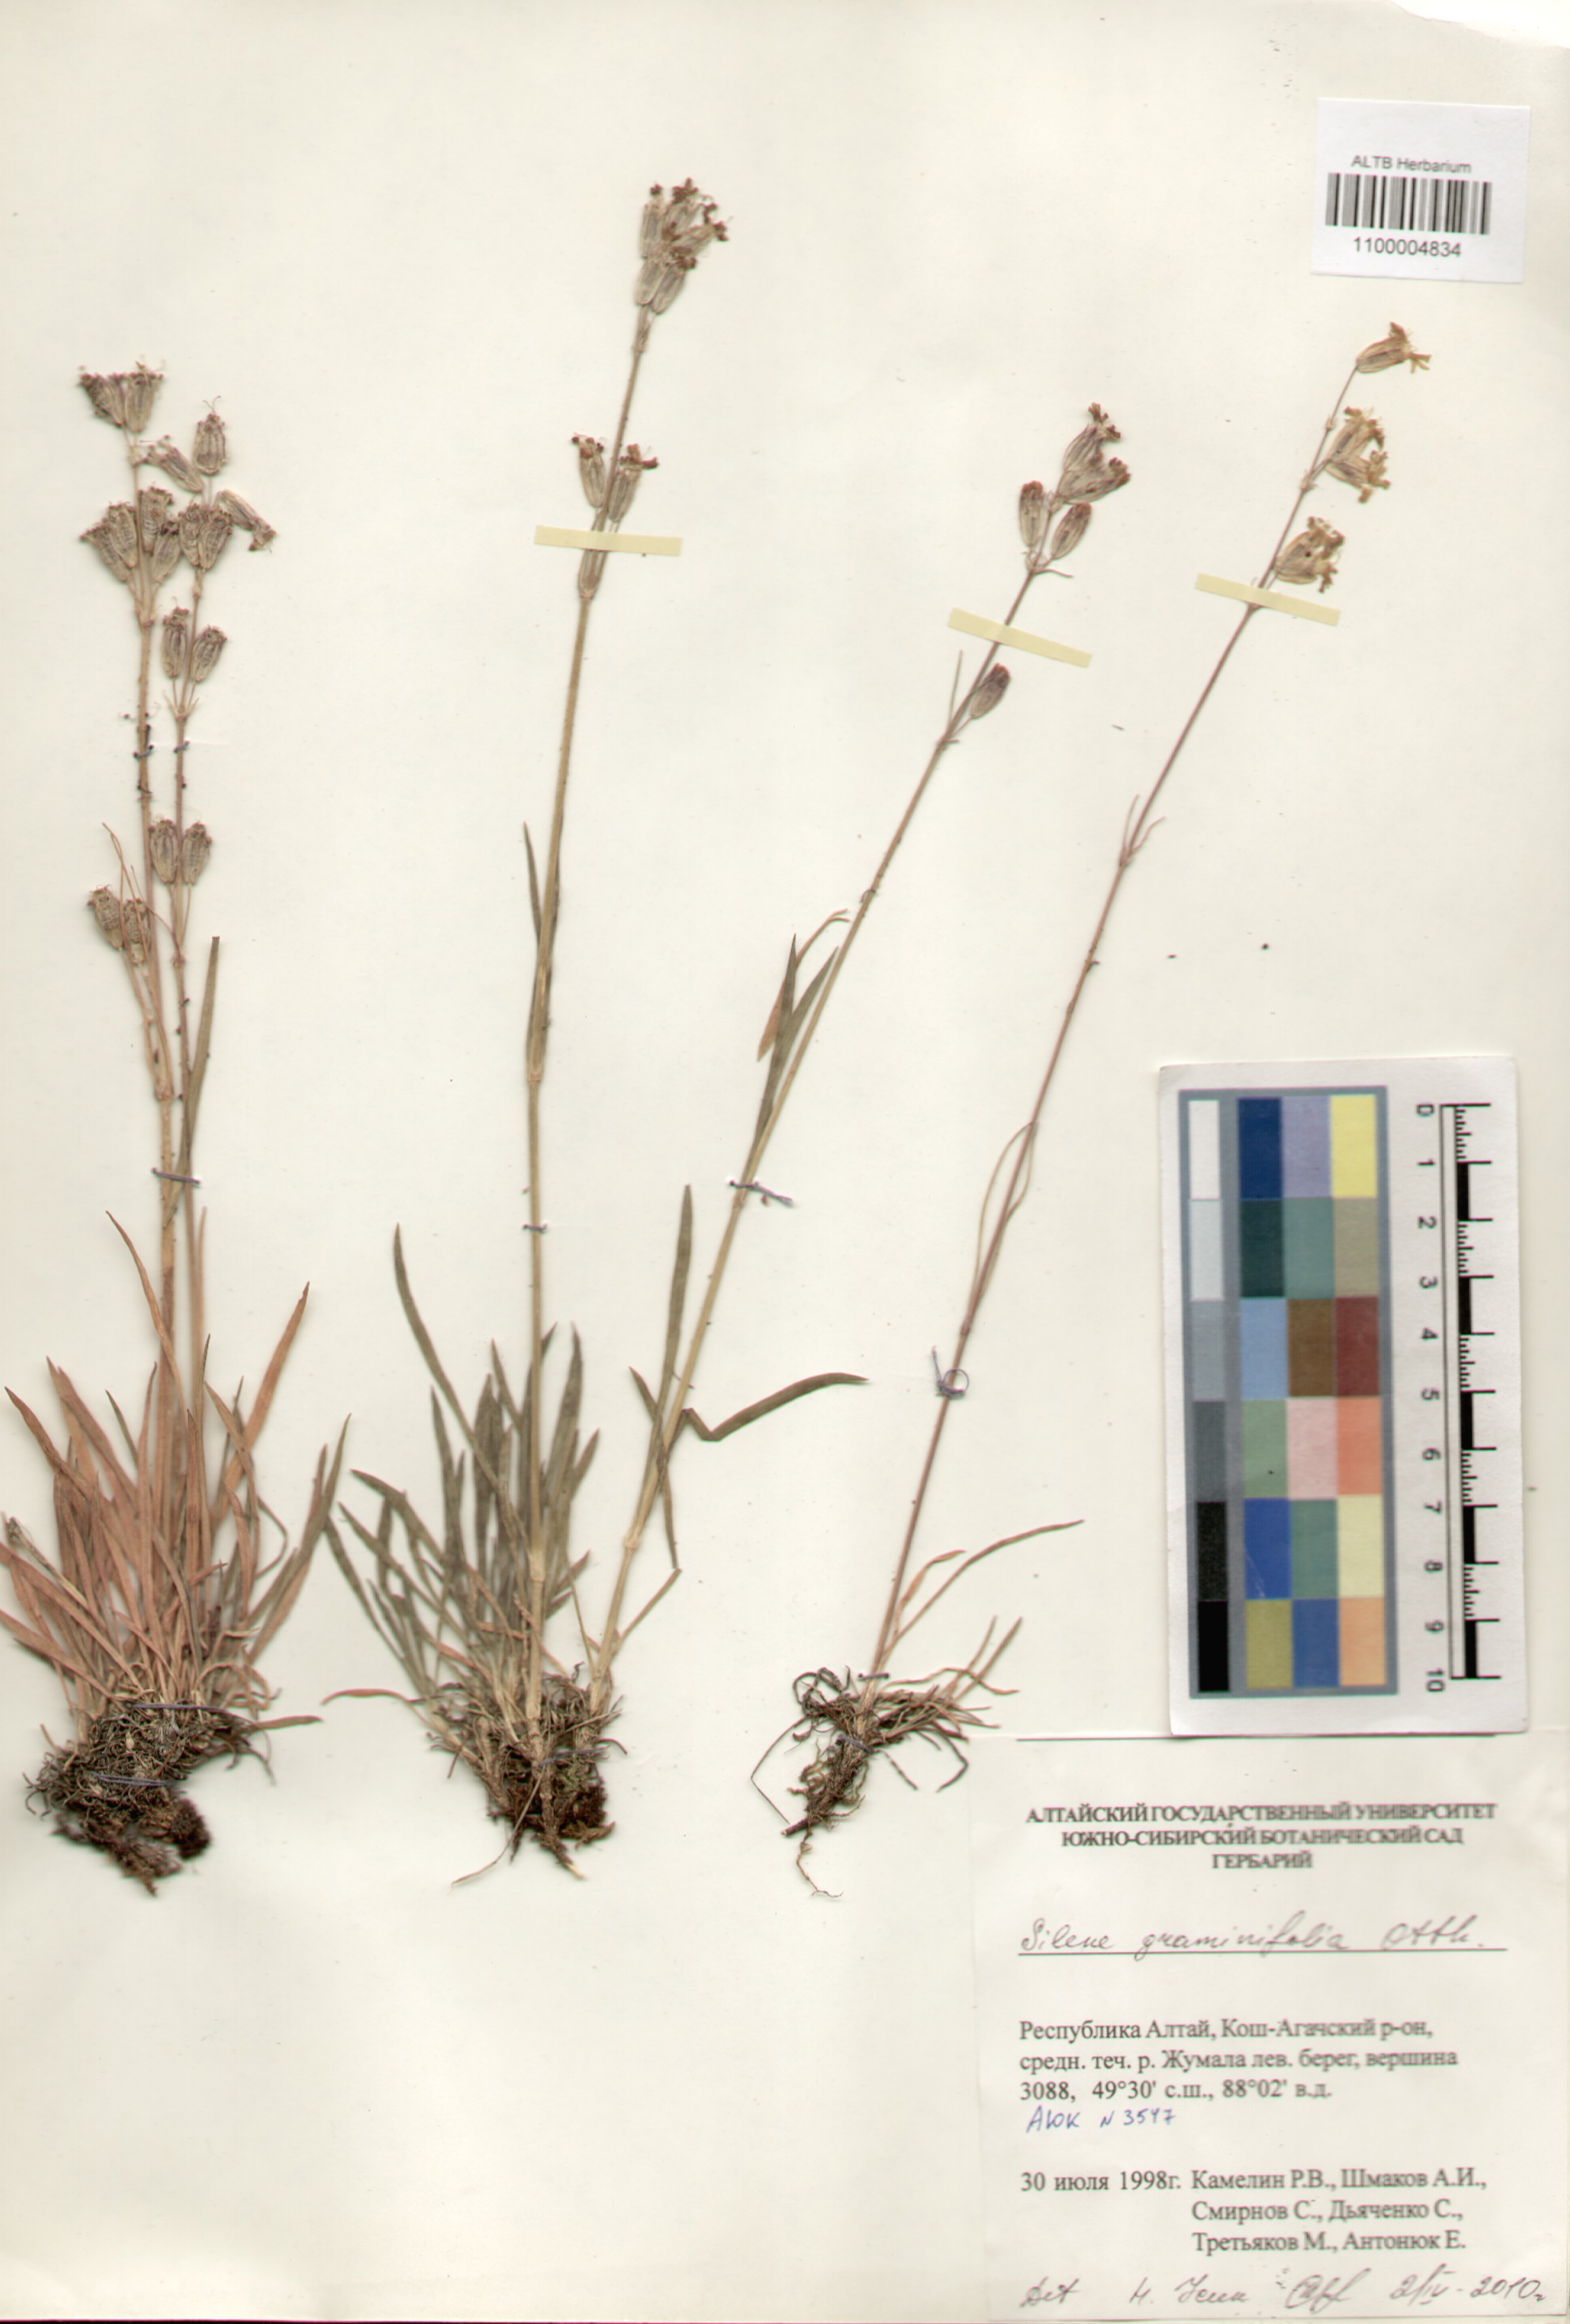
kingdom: Plantae
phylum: Tracheophyta
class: Magnoliopsida
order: Caryophyllales
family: Caryophyllaceae
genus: Silene
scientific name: Silene graminifolia
